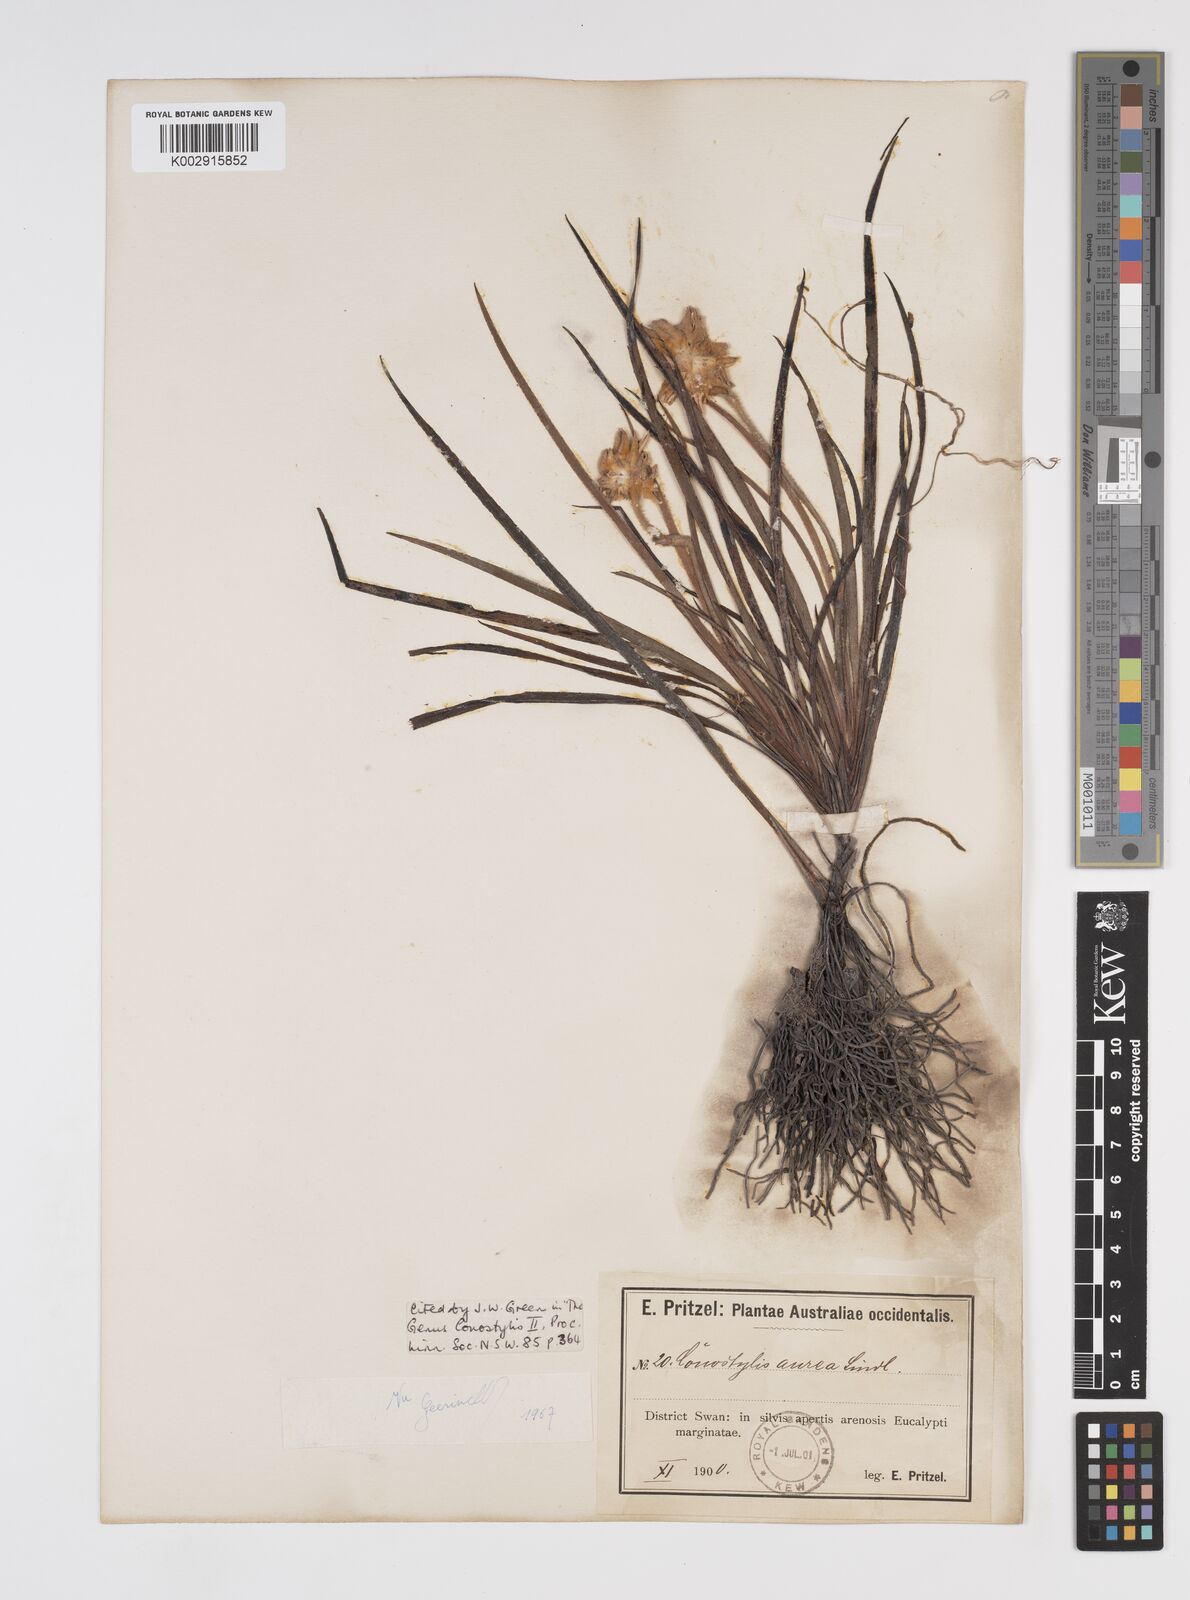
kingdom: Plantae
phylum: Tracheophyta
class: Liliopsida
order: Commelinales
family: Haemodoraceae
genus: Conostylis
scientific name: Conostylis aurea
